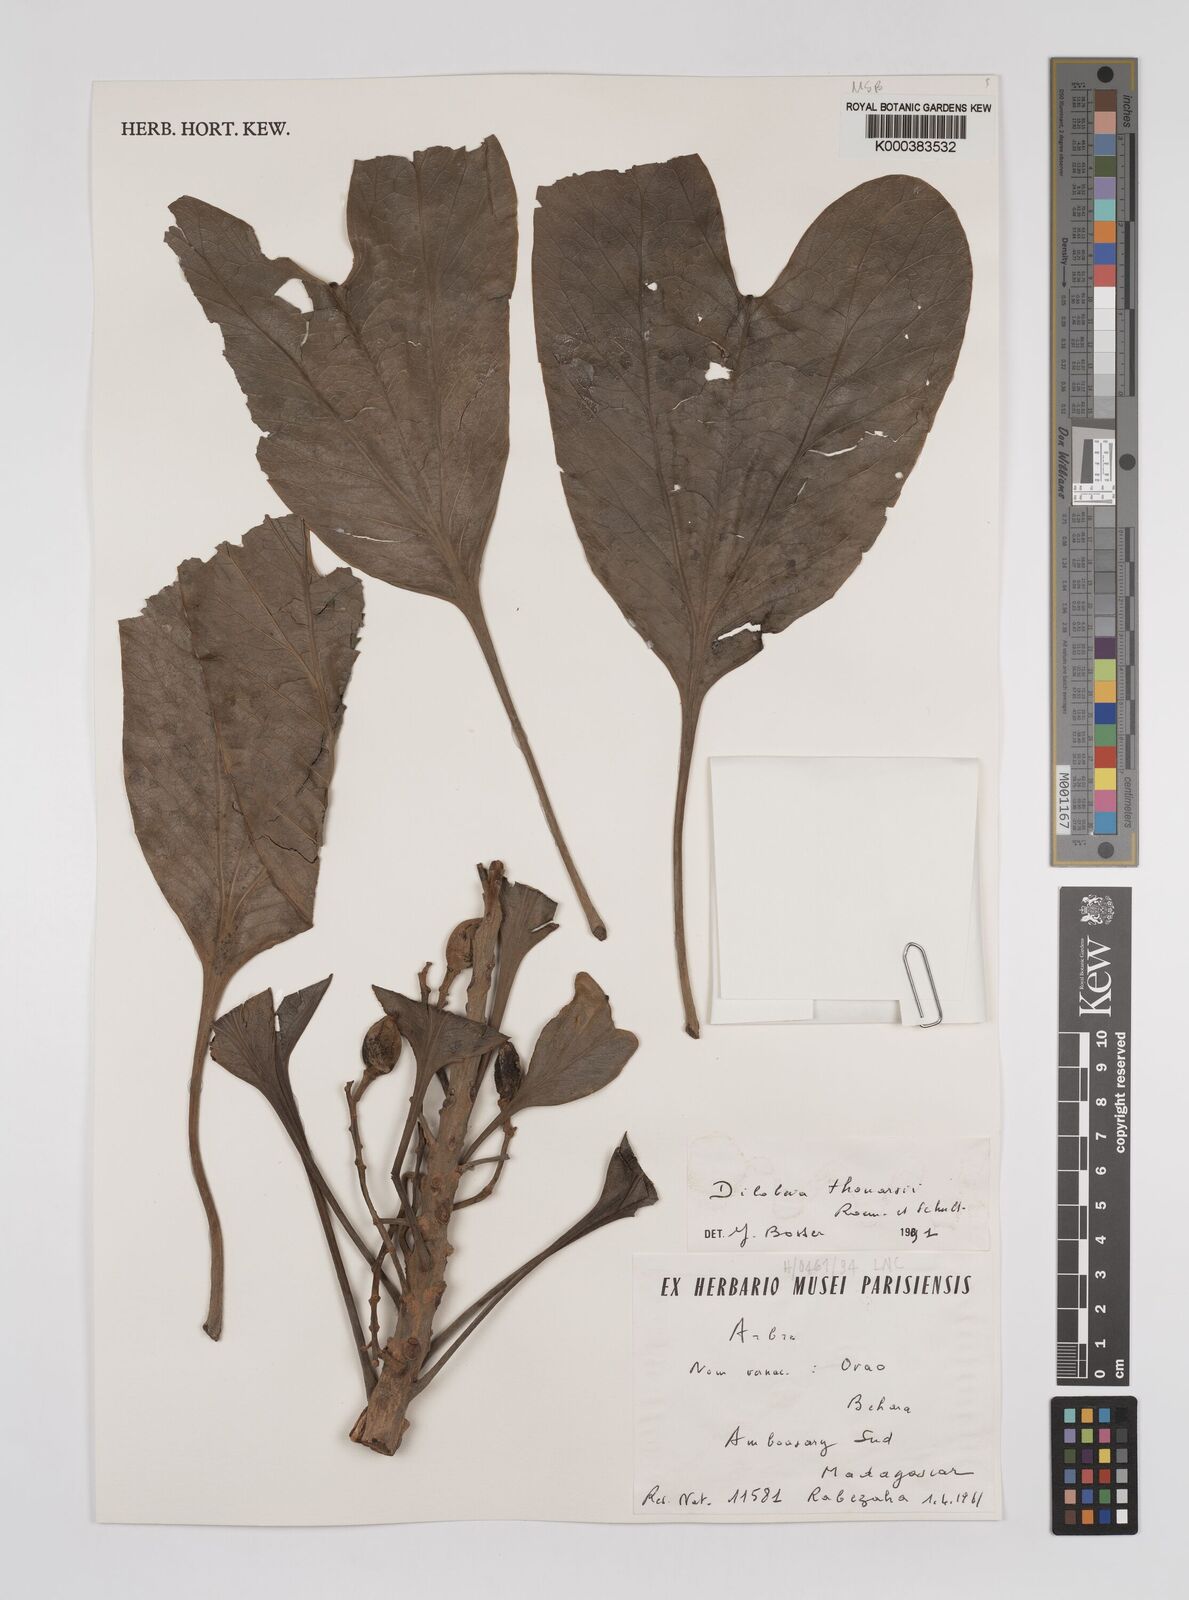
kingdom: Plantae
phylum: Tracheophyta
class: Magnoliopsida
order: Proteales
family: Proteaceae
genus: Dilobeia
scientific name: Dilobeia thouarsii
